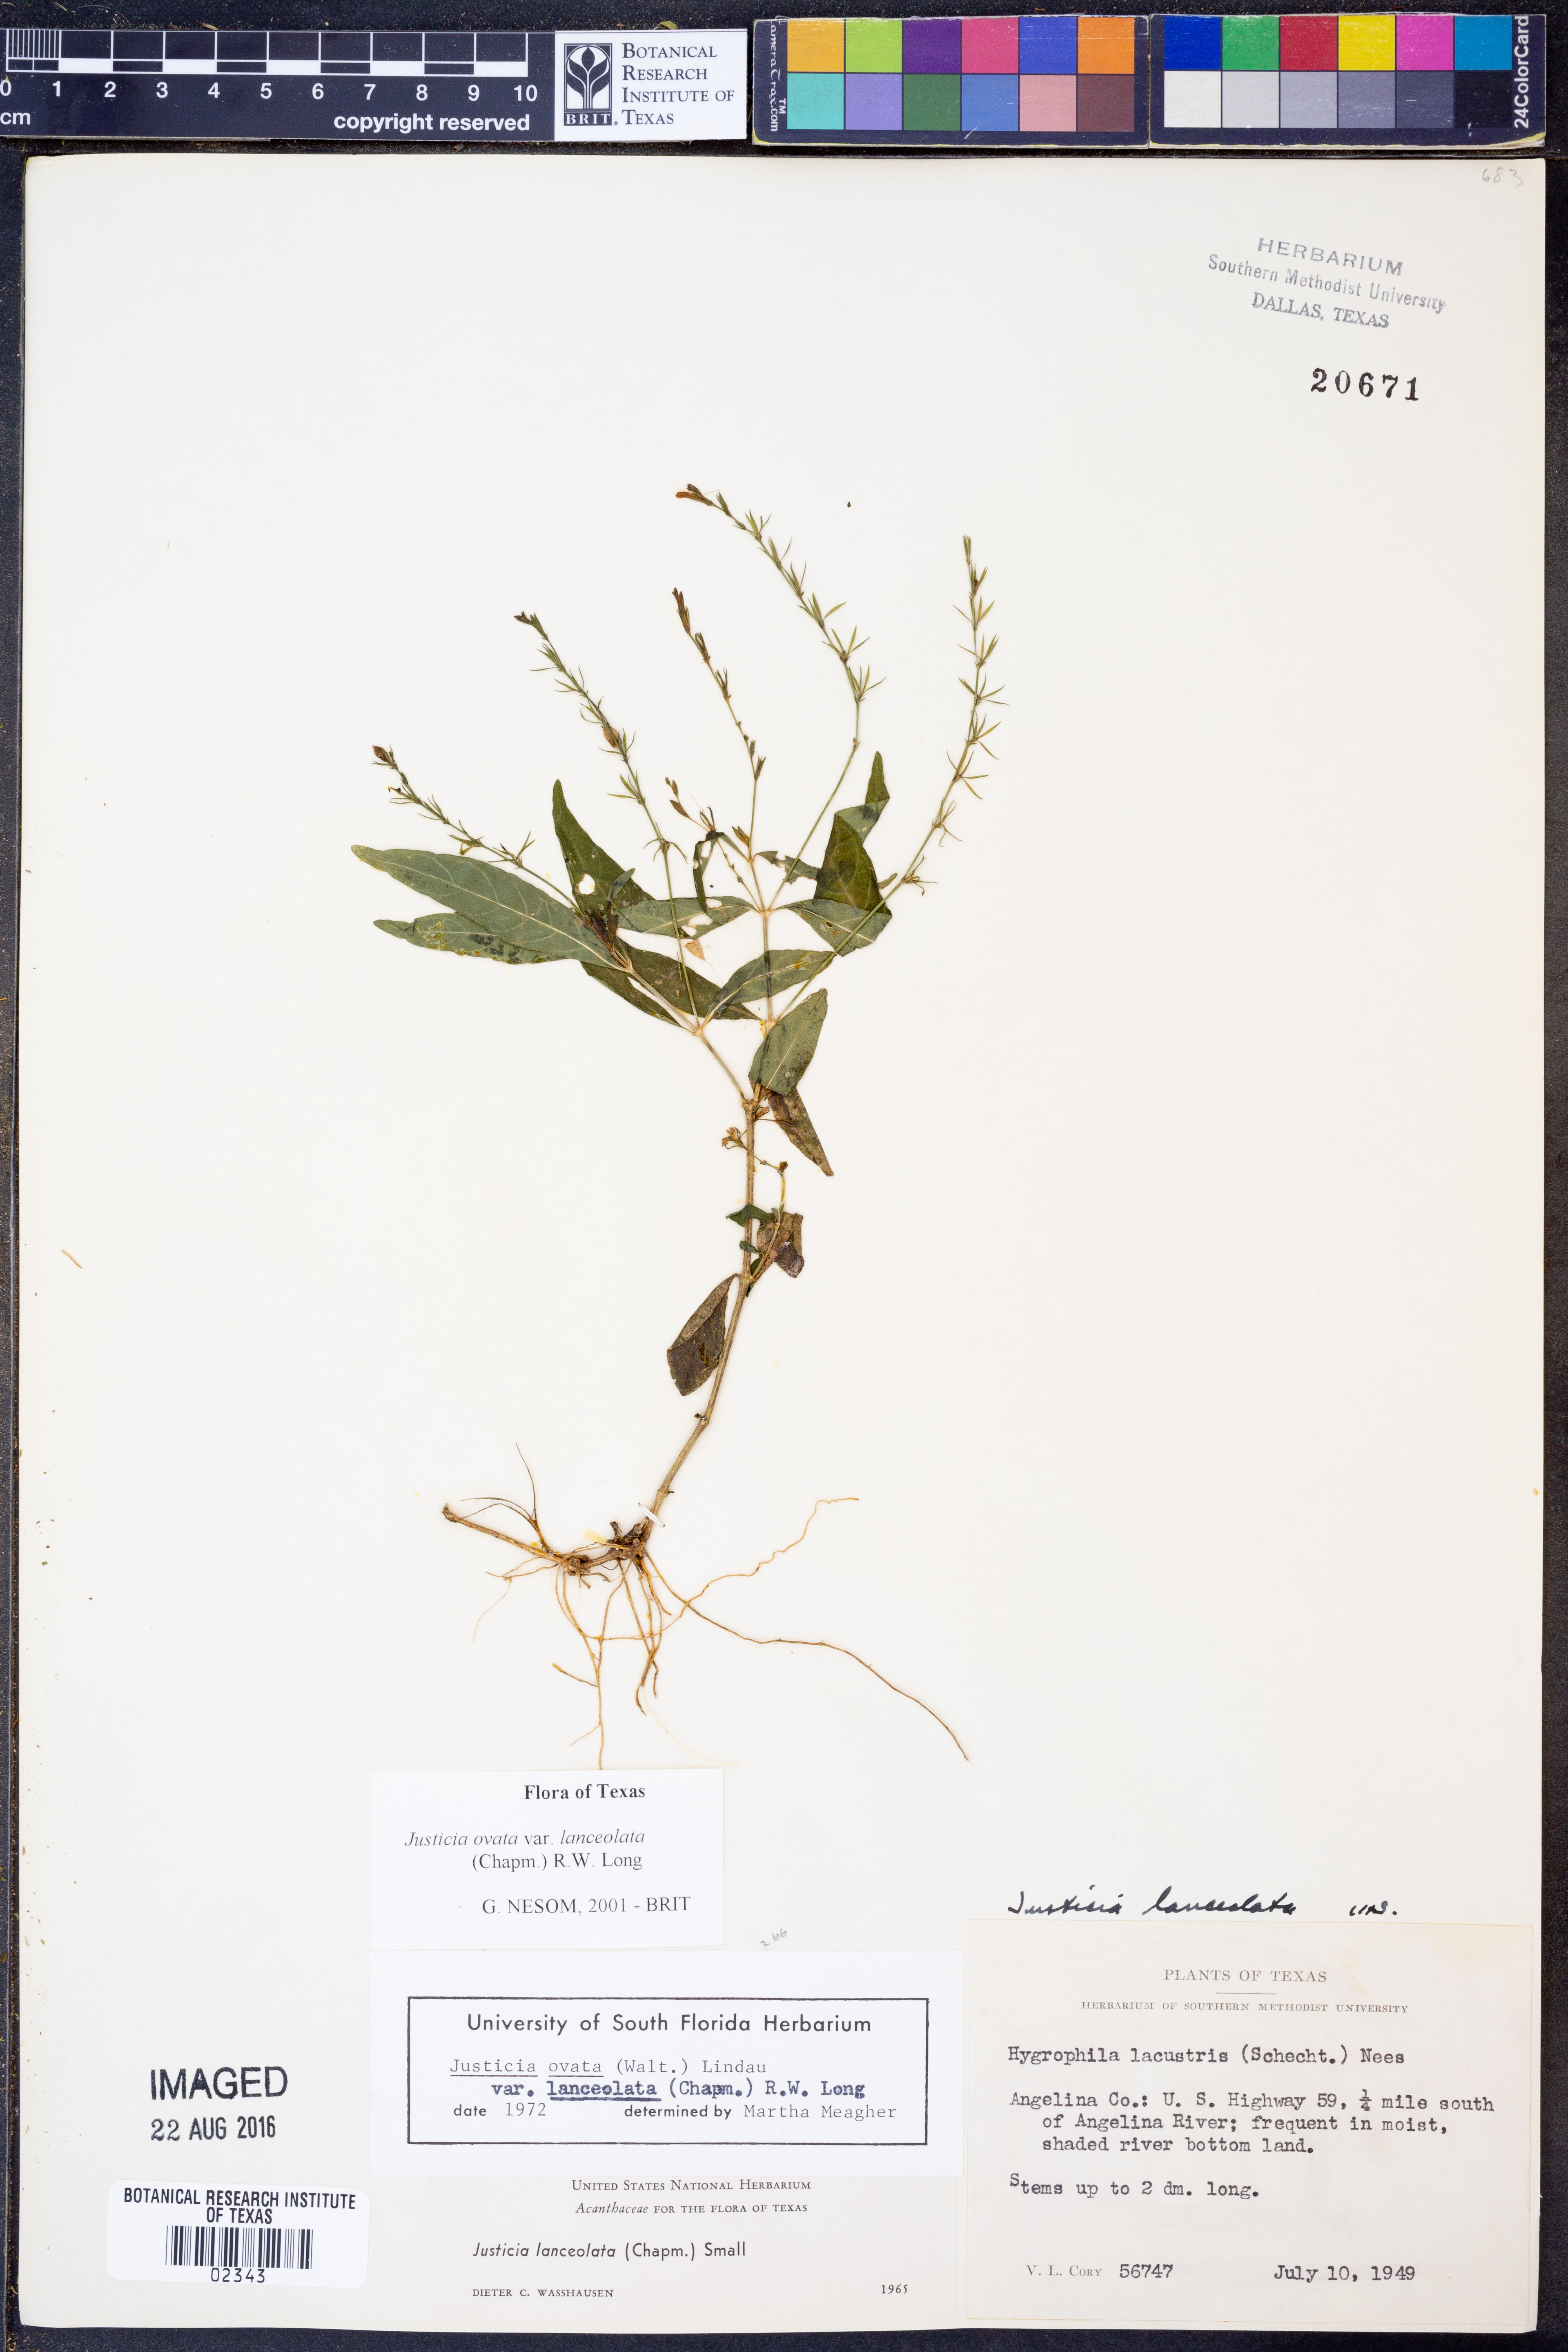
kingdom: Plantae
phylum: Tracheophyta
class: Magnoliopsida
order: Lamiales
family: Acanthaceae
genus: Justicia
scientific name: Justicia lanceolata
